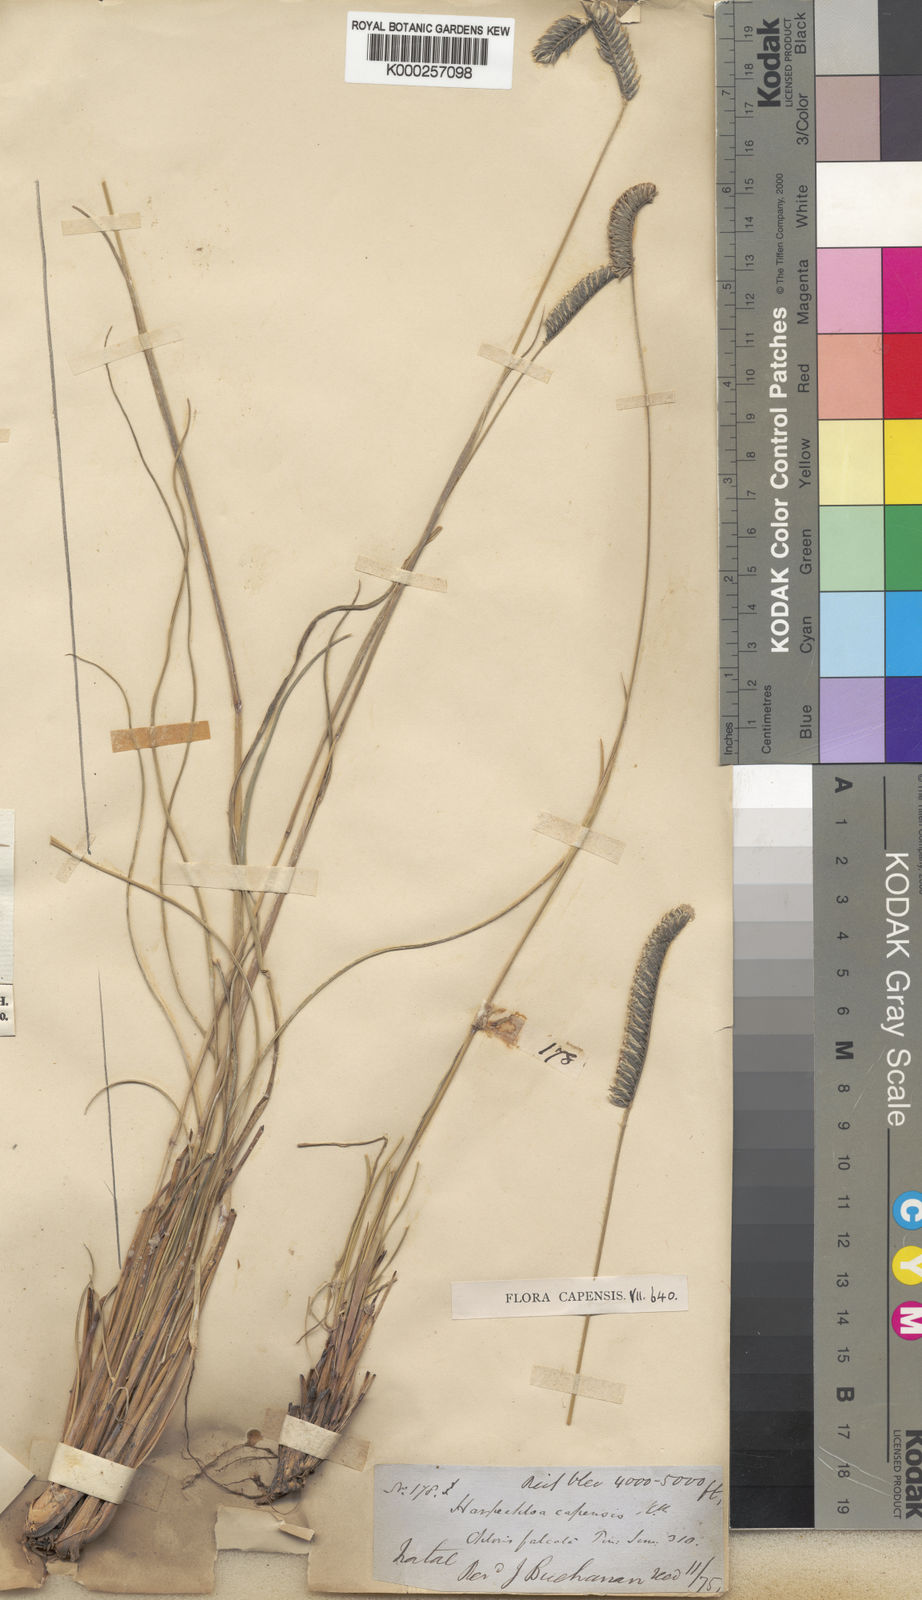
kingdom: Plantae
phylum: Tracheophyta
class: Liliopsida
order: Poales
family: Poaceae
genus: Harpochloa
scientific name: Harpochloa falx
